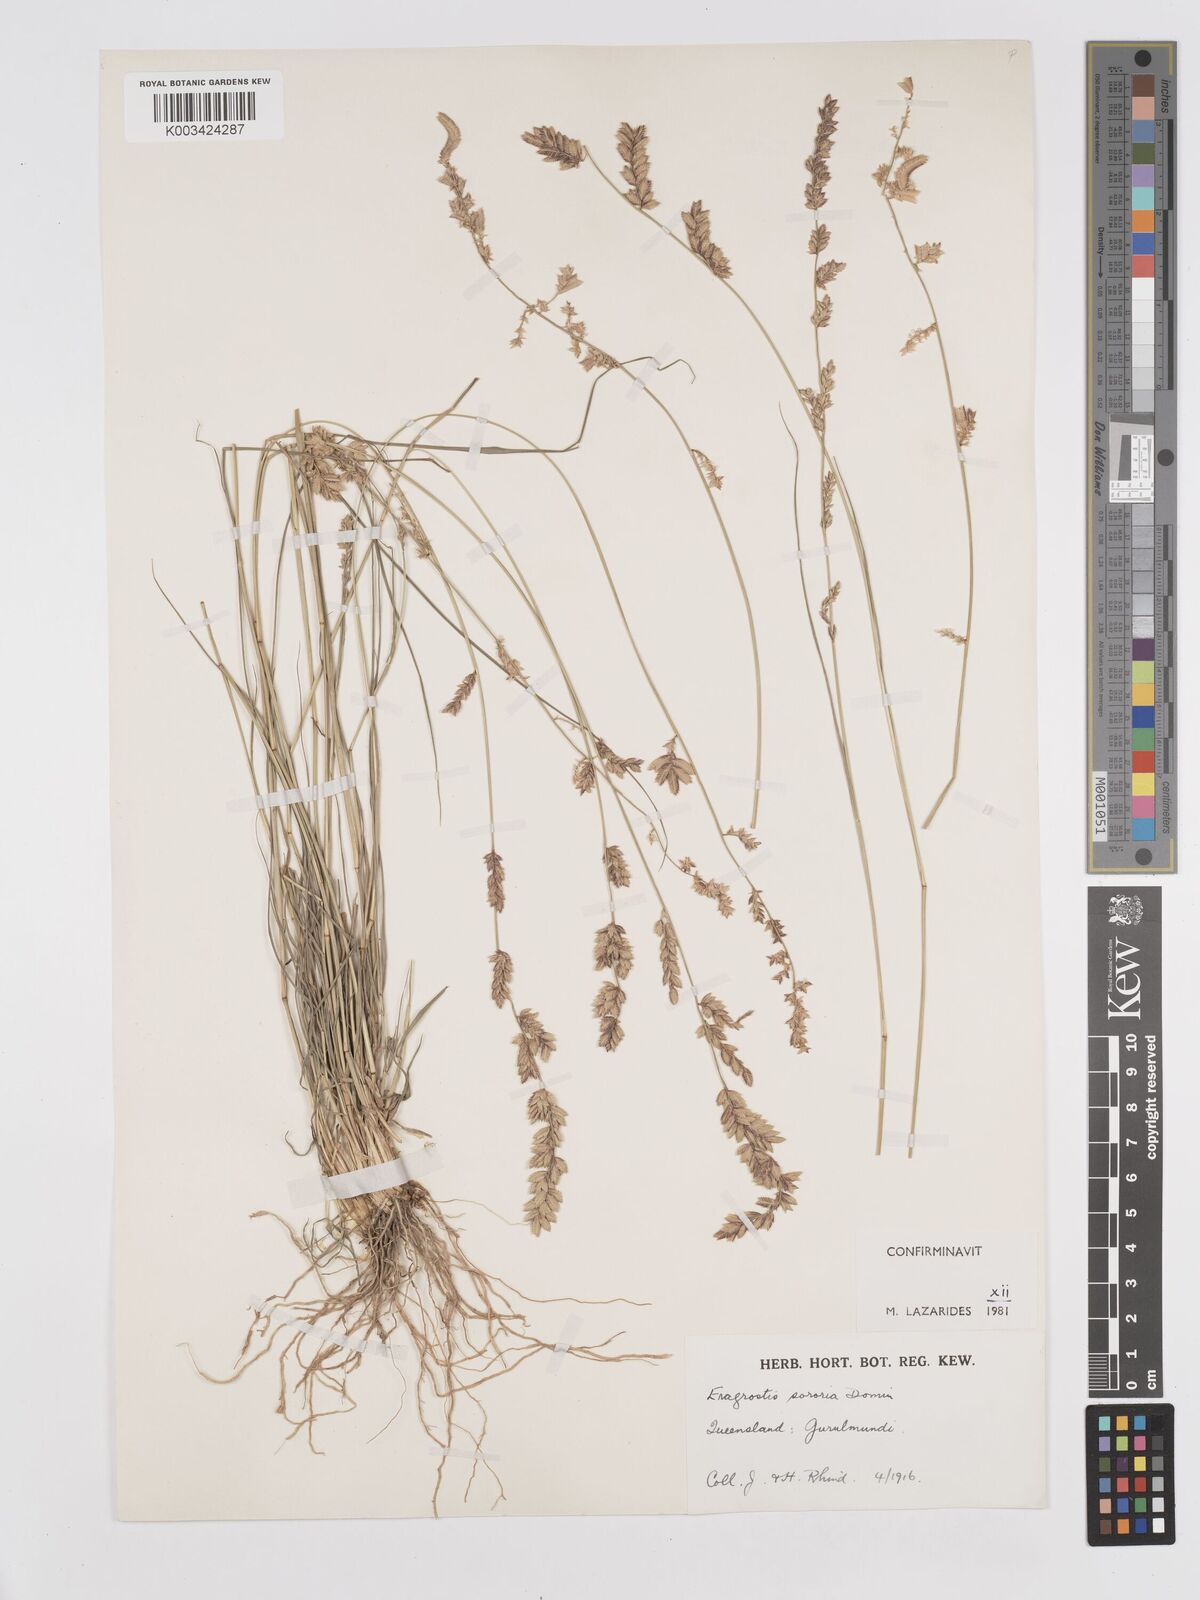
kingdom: Plantae
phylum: Tracheophyta
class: Liliopsida
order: Poales
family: Poaceae
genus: Eragrostis
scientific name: Eragrostis sororia
